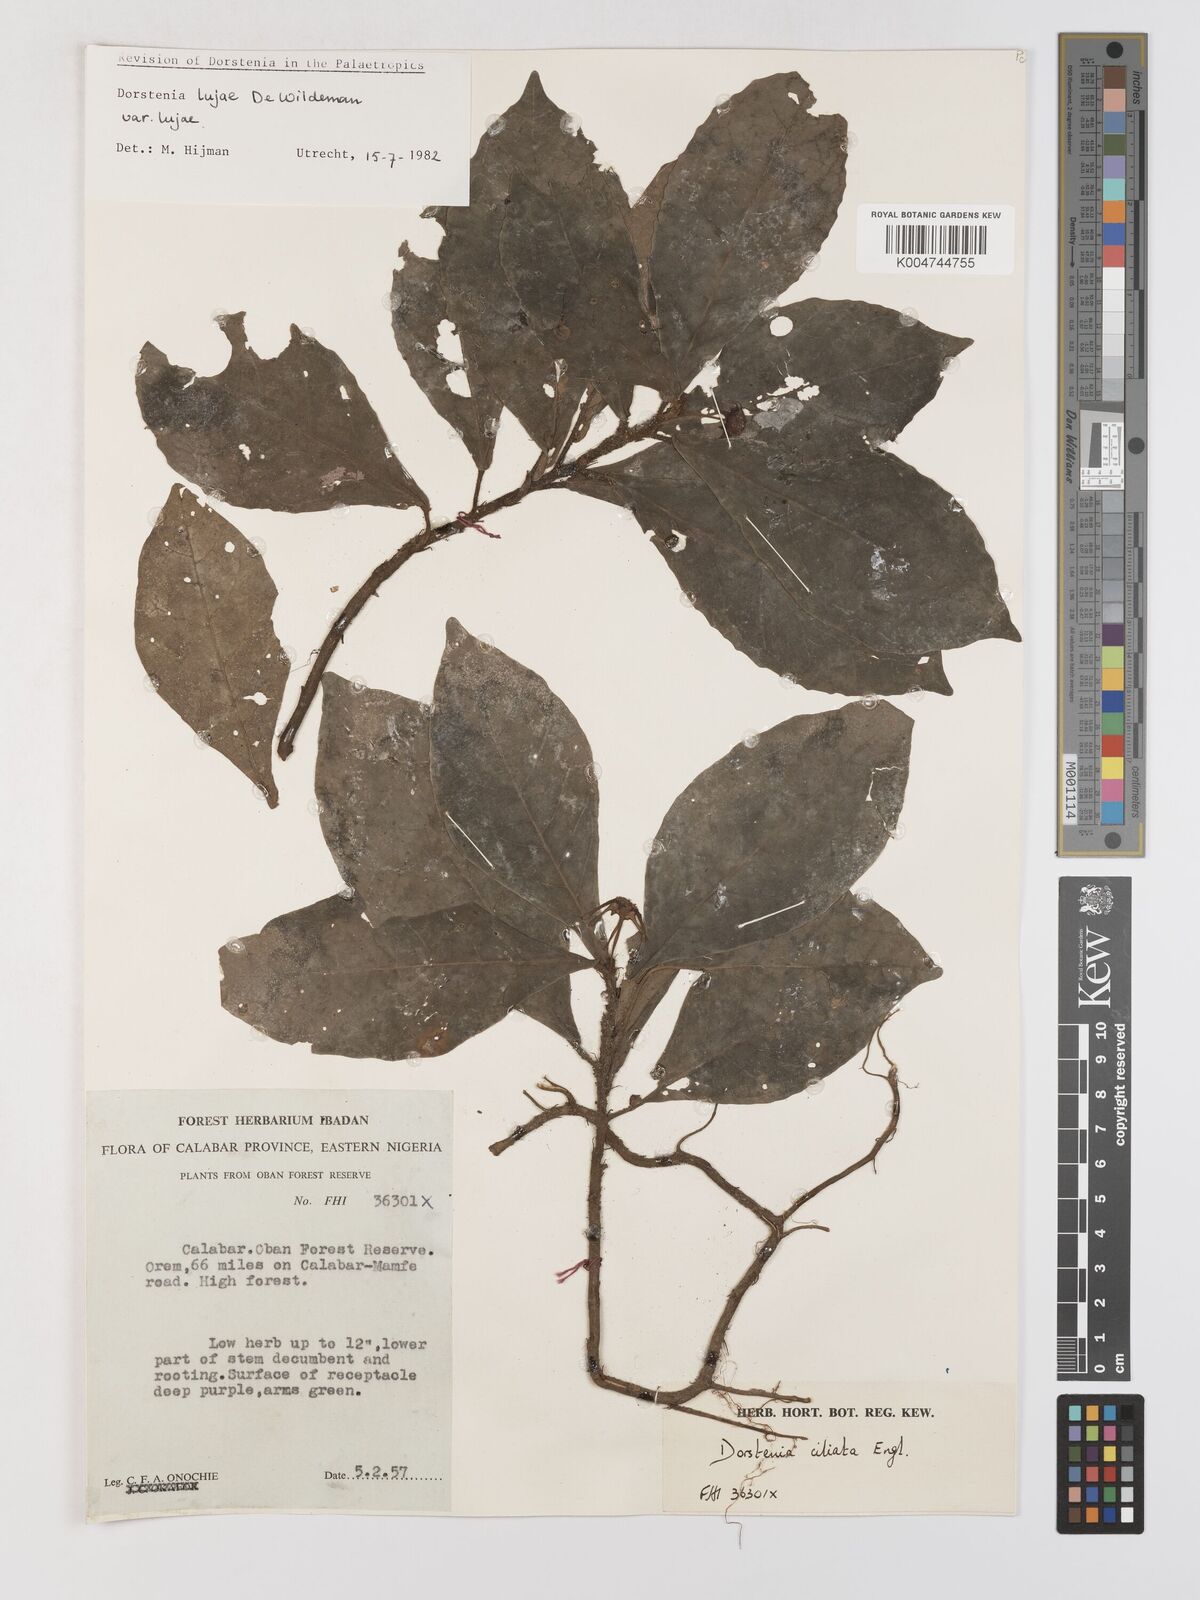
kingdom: Plantae
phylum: Tracheophyta
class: Magnoliopsida
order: Rosales
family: Moraceae
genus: Dorstenia
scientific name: Dorstenia lujae
